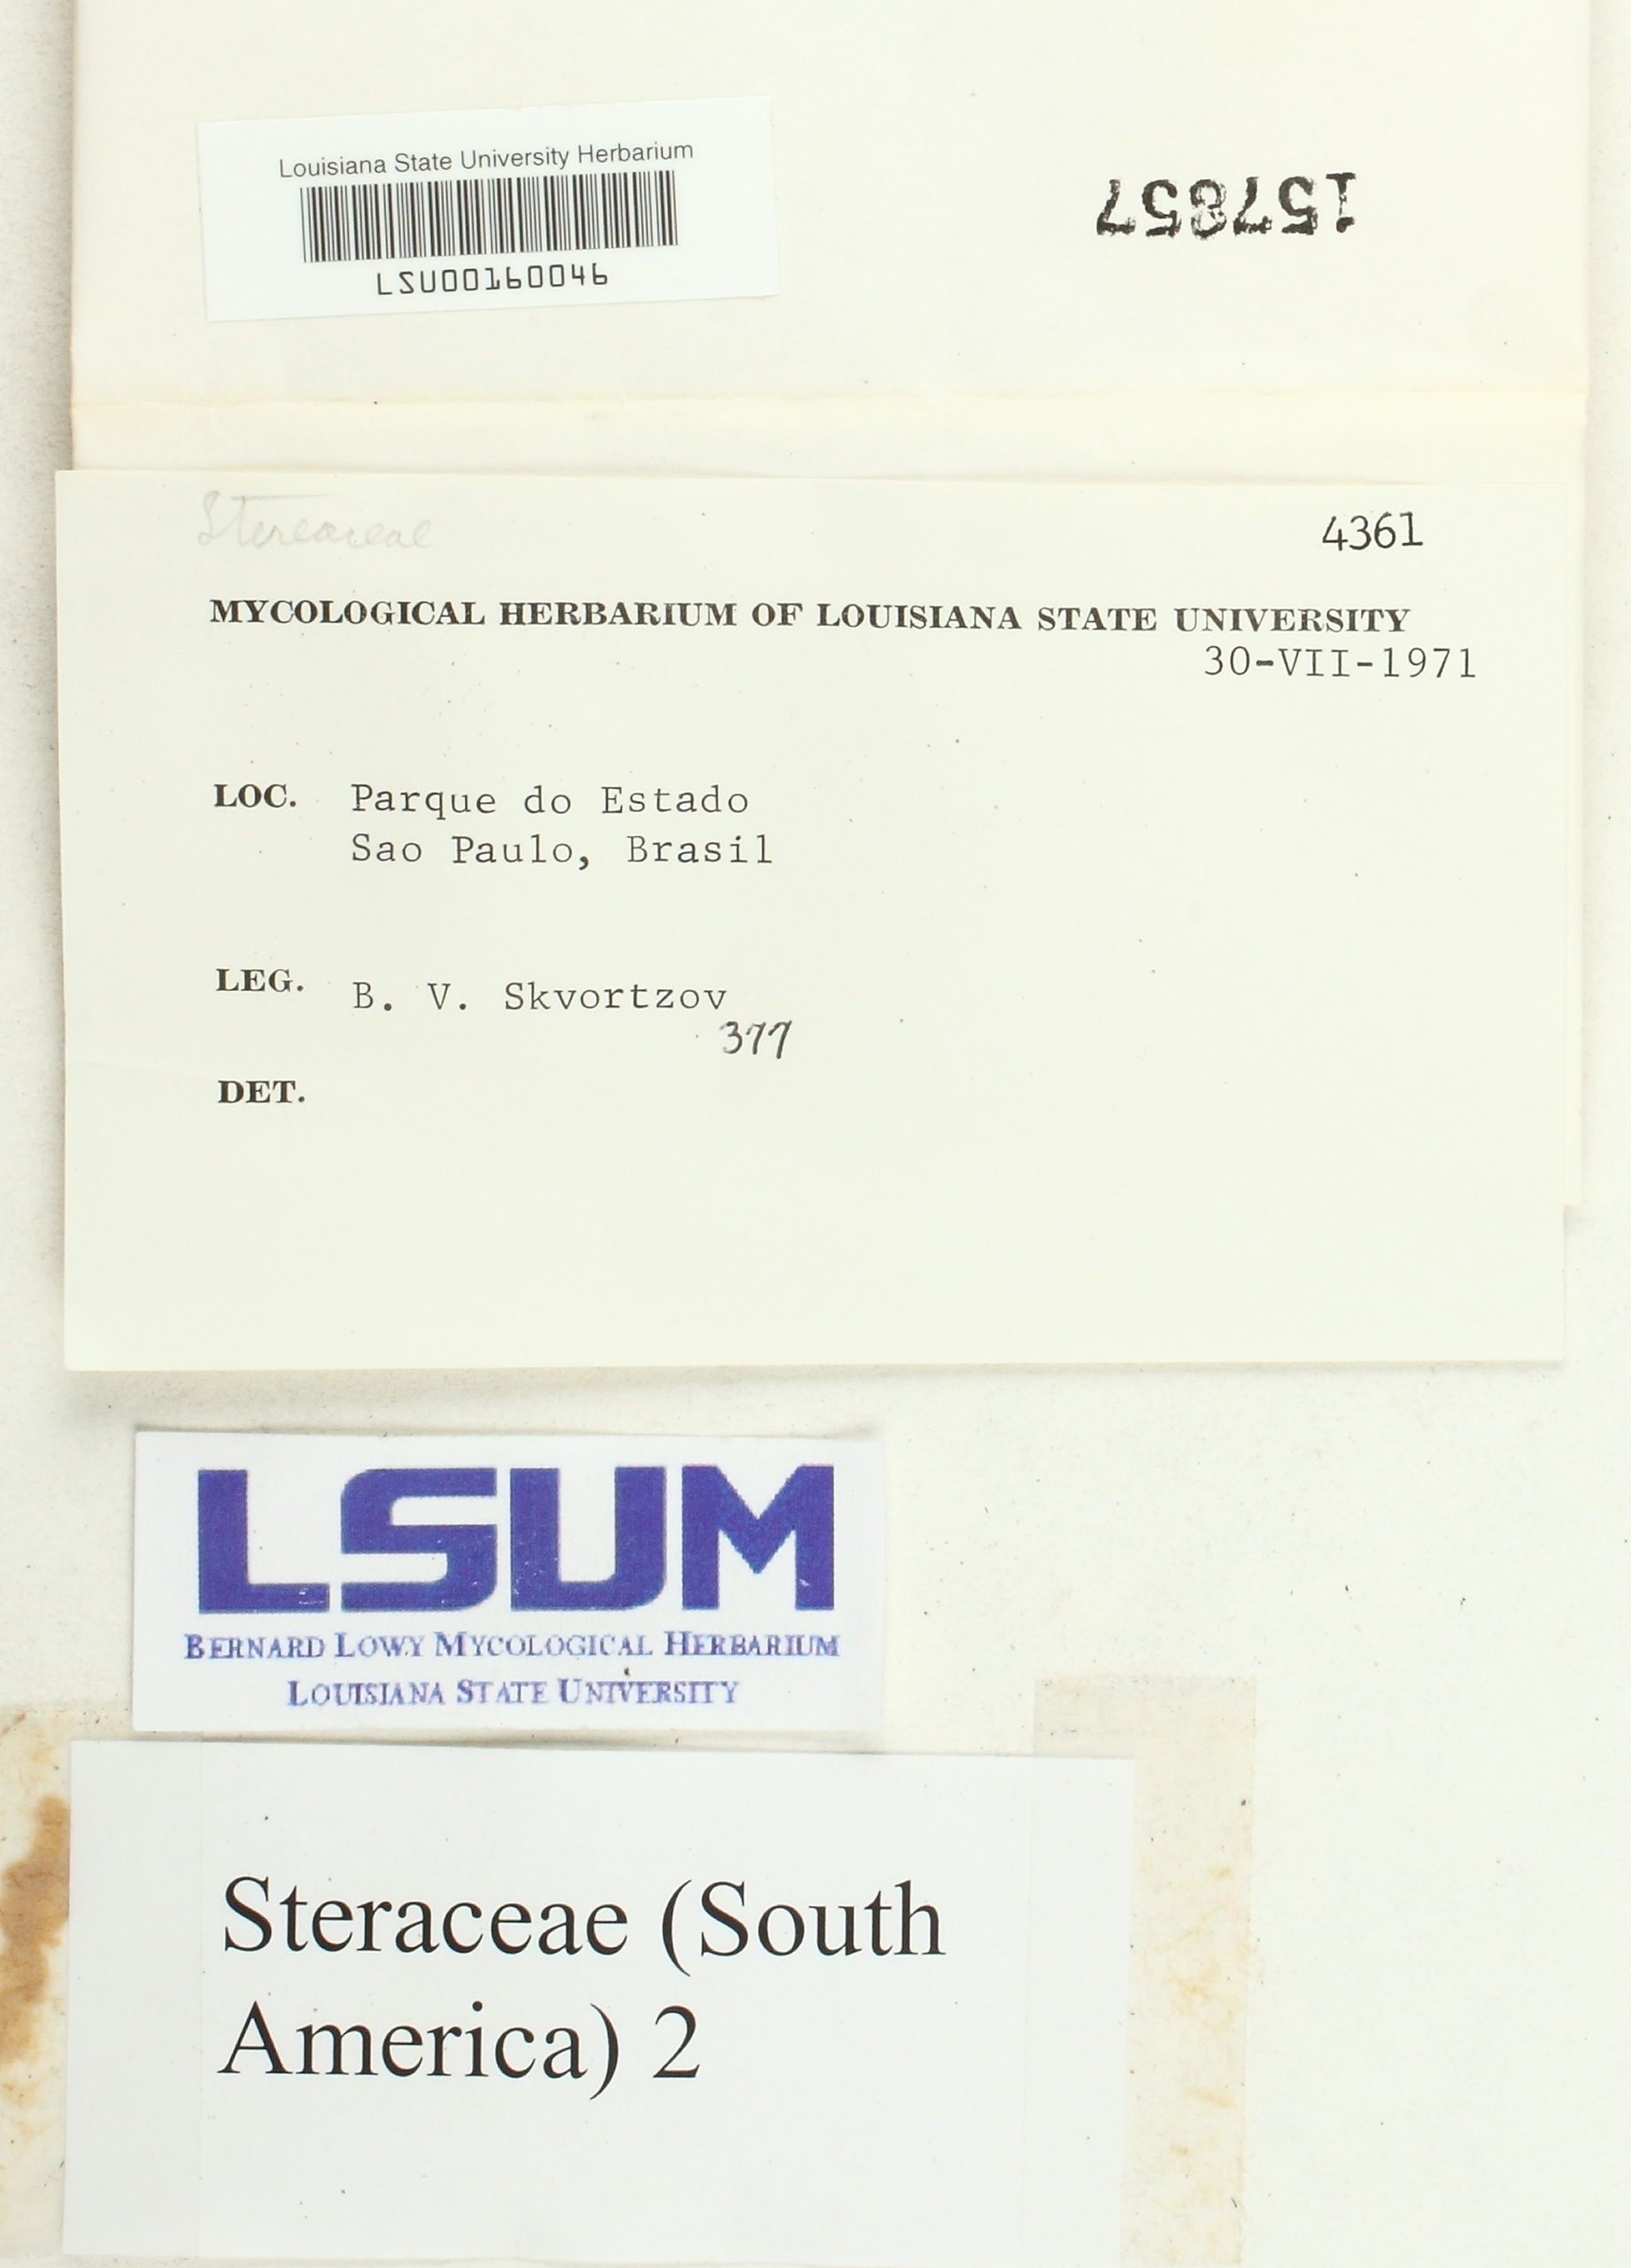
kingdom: Fungi
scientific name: Fungi
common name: Fungi
